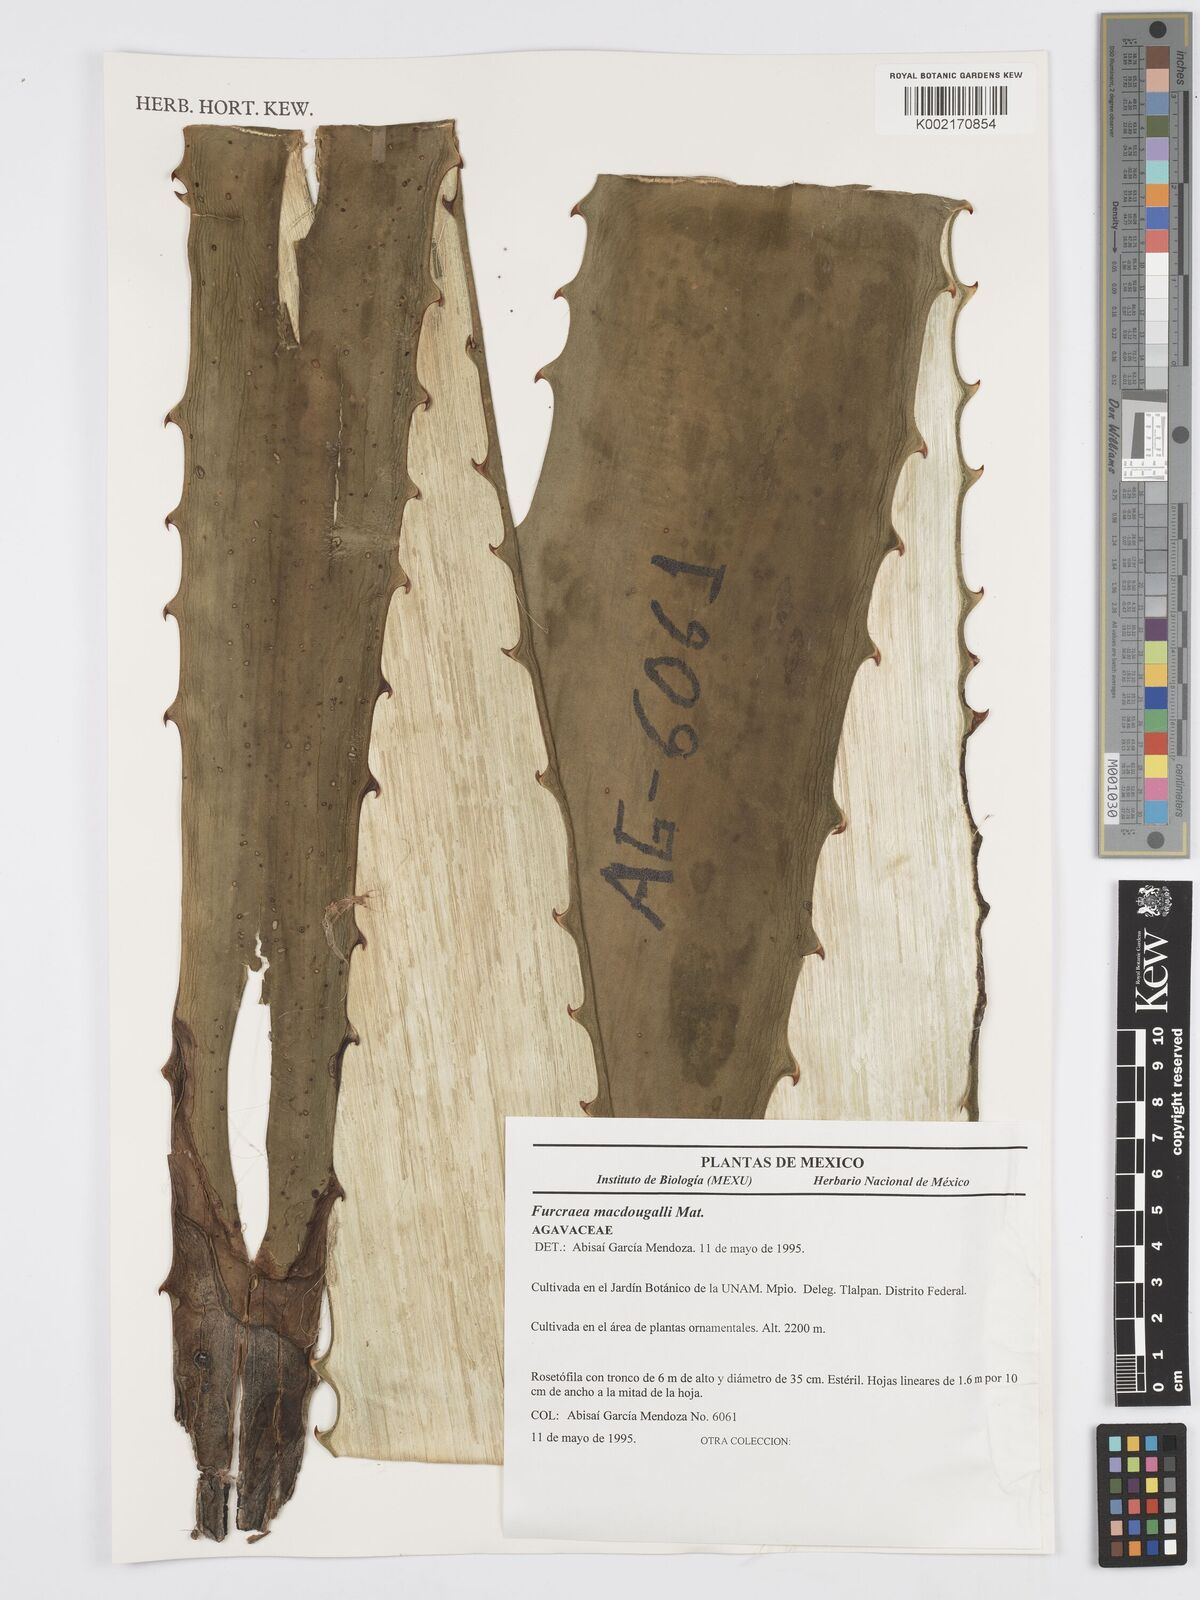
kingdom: Plantae
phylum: Tracheophyta
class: Liliopsida
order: Asparagales
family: Asparagaceae
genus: Furcraea
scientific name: Furcraea macdougallii
